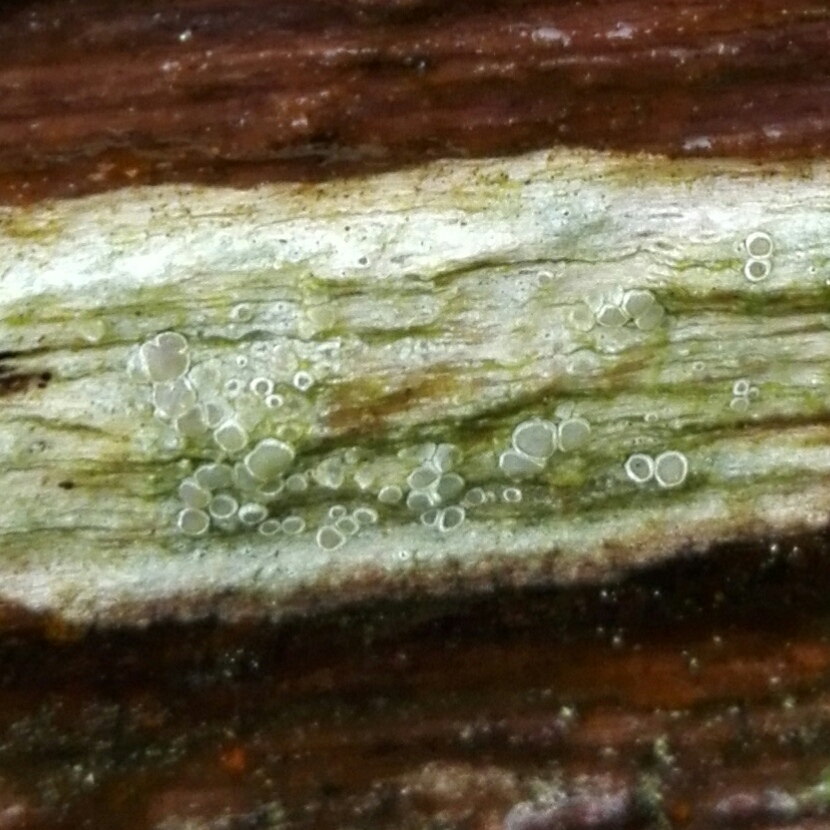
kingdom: Fungi
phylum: Ascomycota
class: Lecanoromycetes
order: Lecanorales
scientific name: Lecanorales
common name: skivelavordenen
